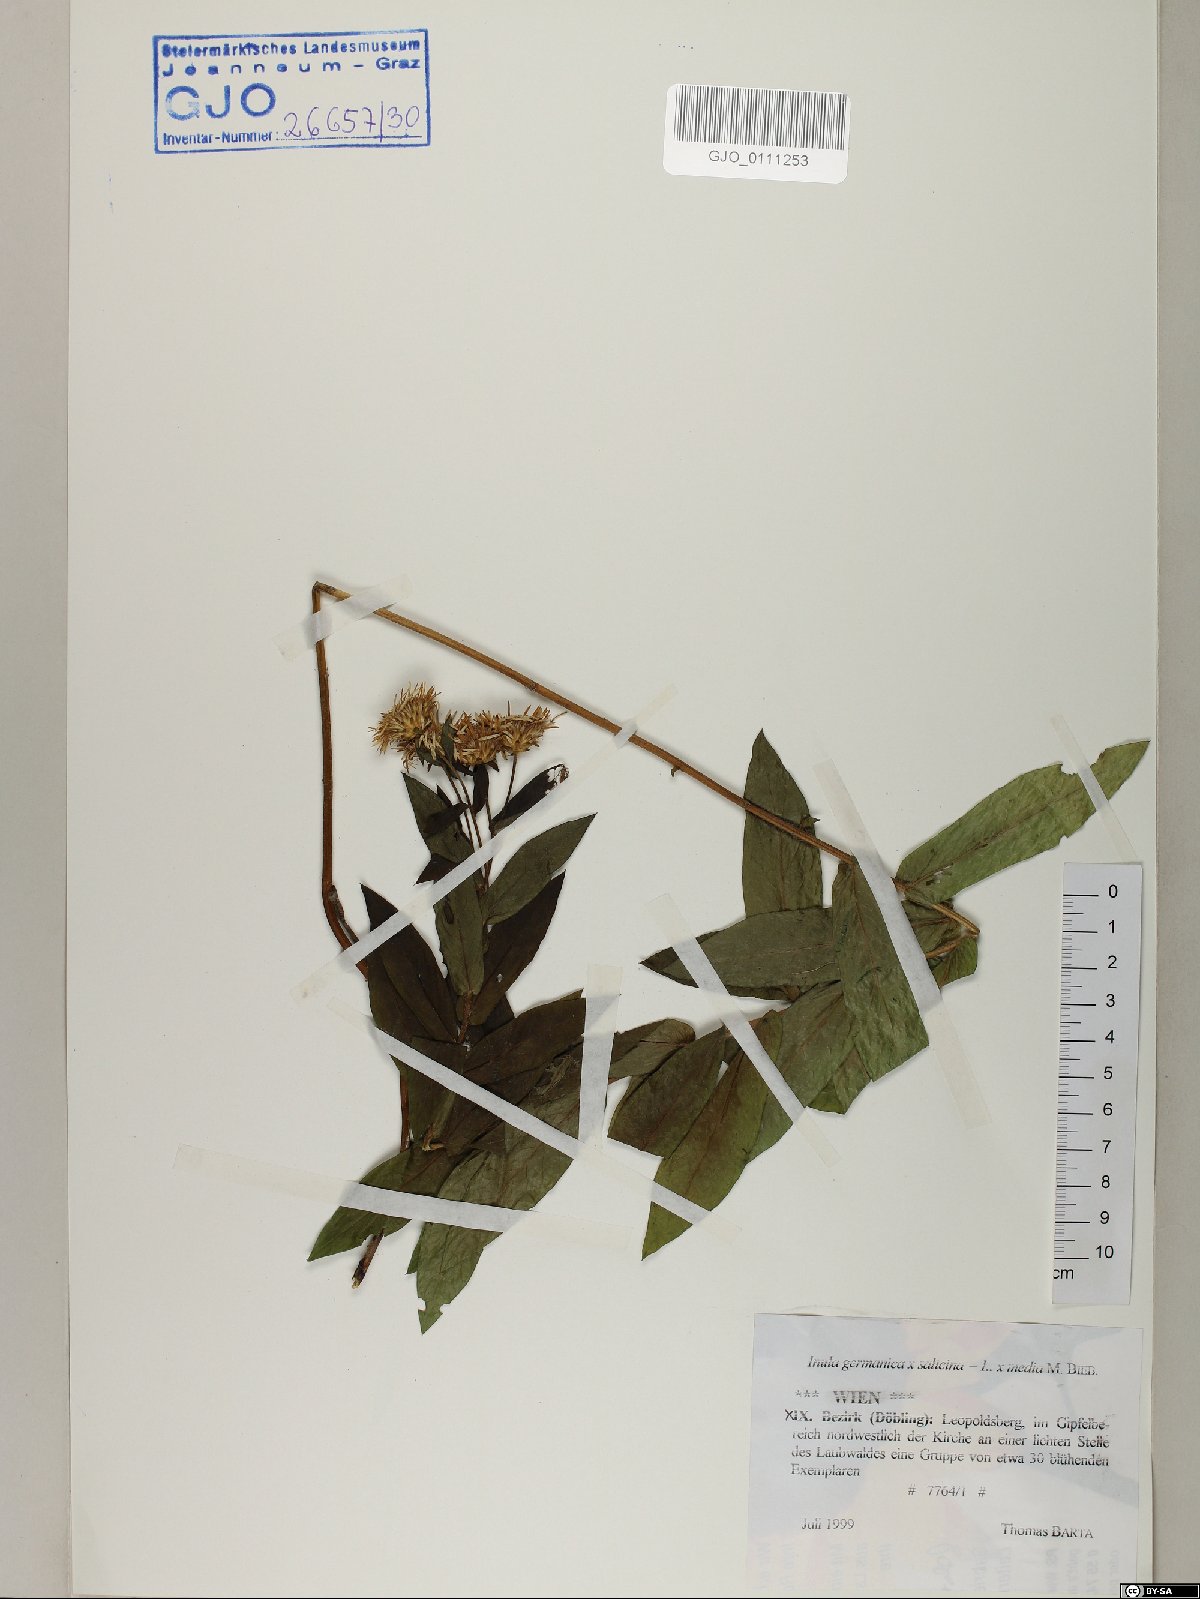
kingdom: Plantae
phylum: Tracheophyta
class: Magnoliopsida
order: Asterales
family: Asteraceae
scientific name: Asteraceae
